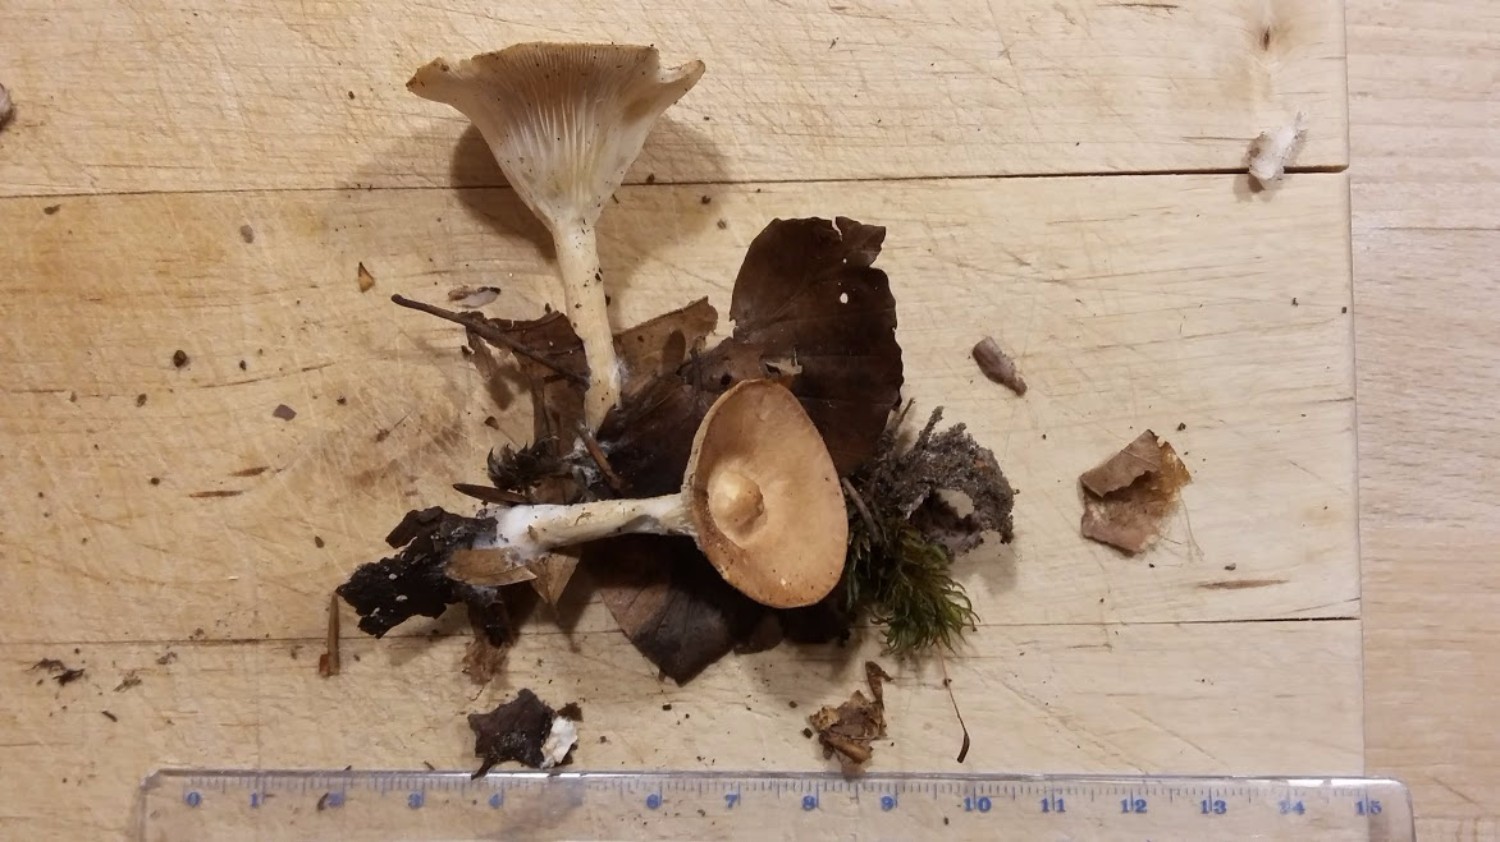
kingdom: Fungi
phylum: Basidiomycota
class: Agaricomycetes
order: Agaricales
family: Tricholomataceae
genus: Infundibulicybe
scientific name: Infundibulicybe gibba
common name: almindelig tragthat
